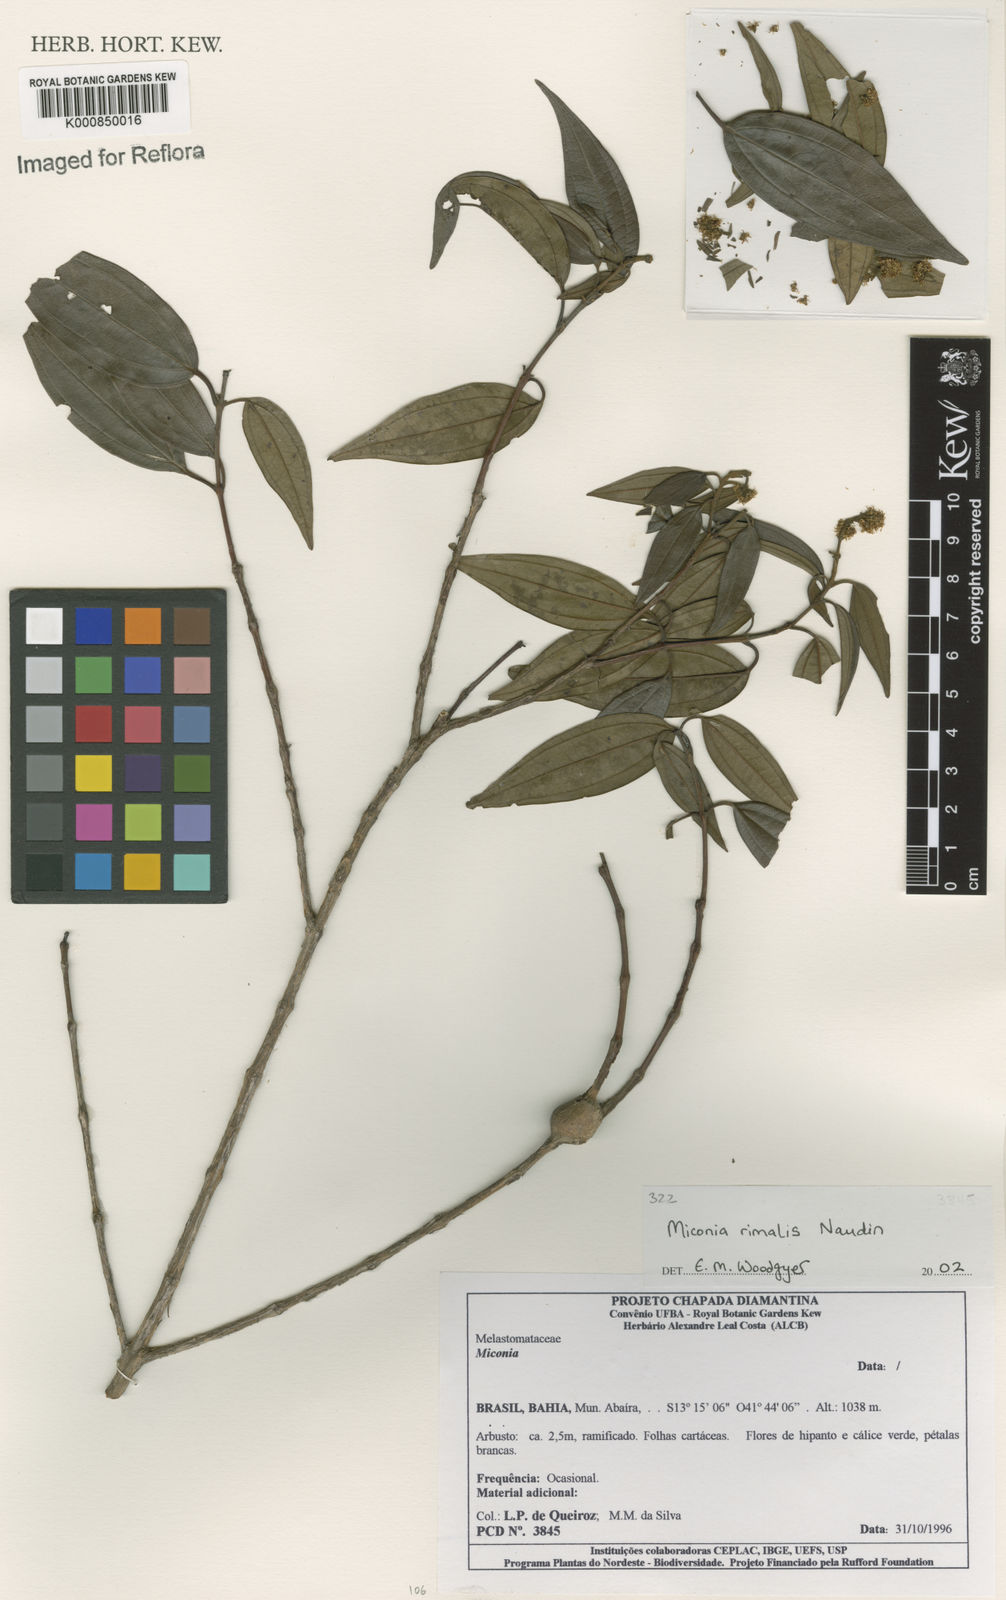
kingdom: Plantae
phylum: Tracheophyta
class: Magnoliopsida
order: Myrtales
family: Melastomataceae
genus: Miconia
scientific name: Miconia
